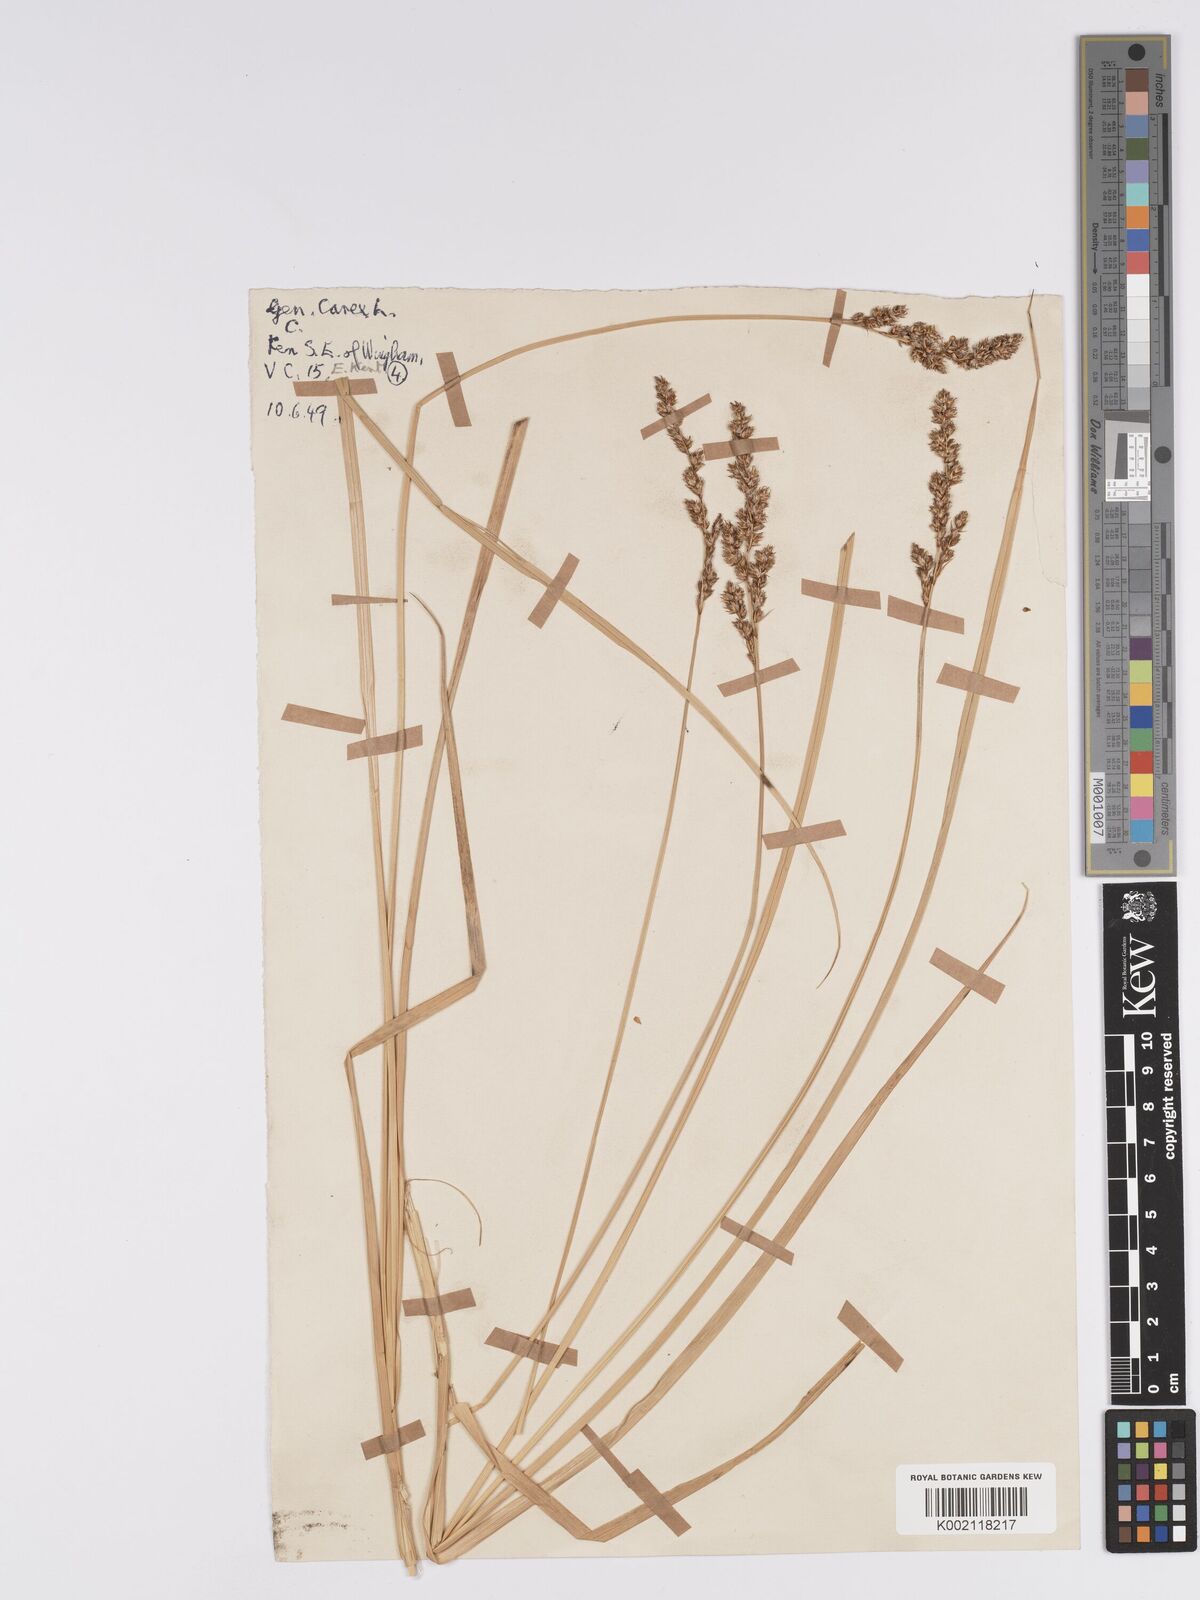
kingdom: Plantae
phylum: Tracheophyta
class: Liliopsida
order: Poales
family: Cyperaceae
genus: Carex
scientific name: Carex paniculata
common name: Greater tussock-sedge
